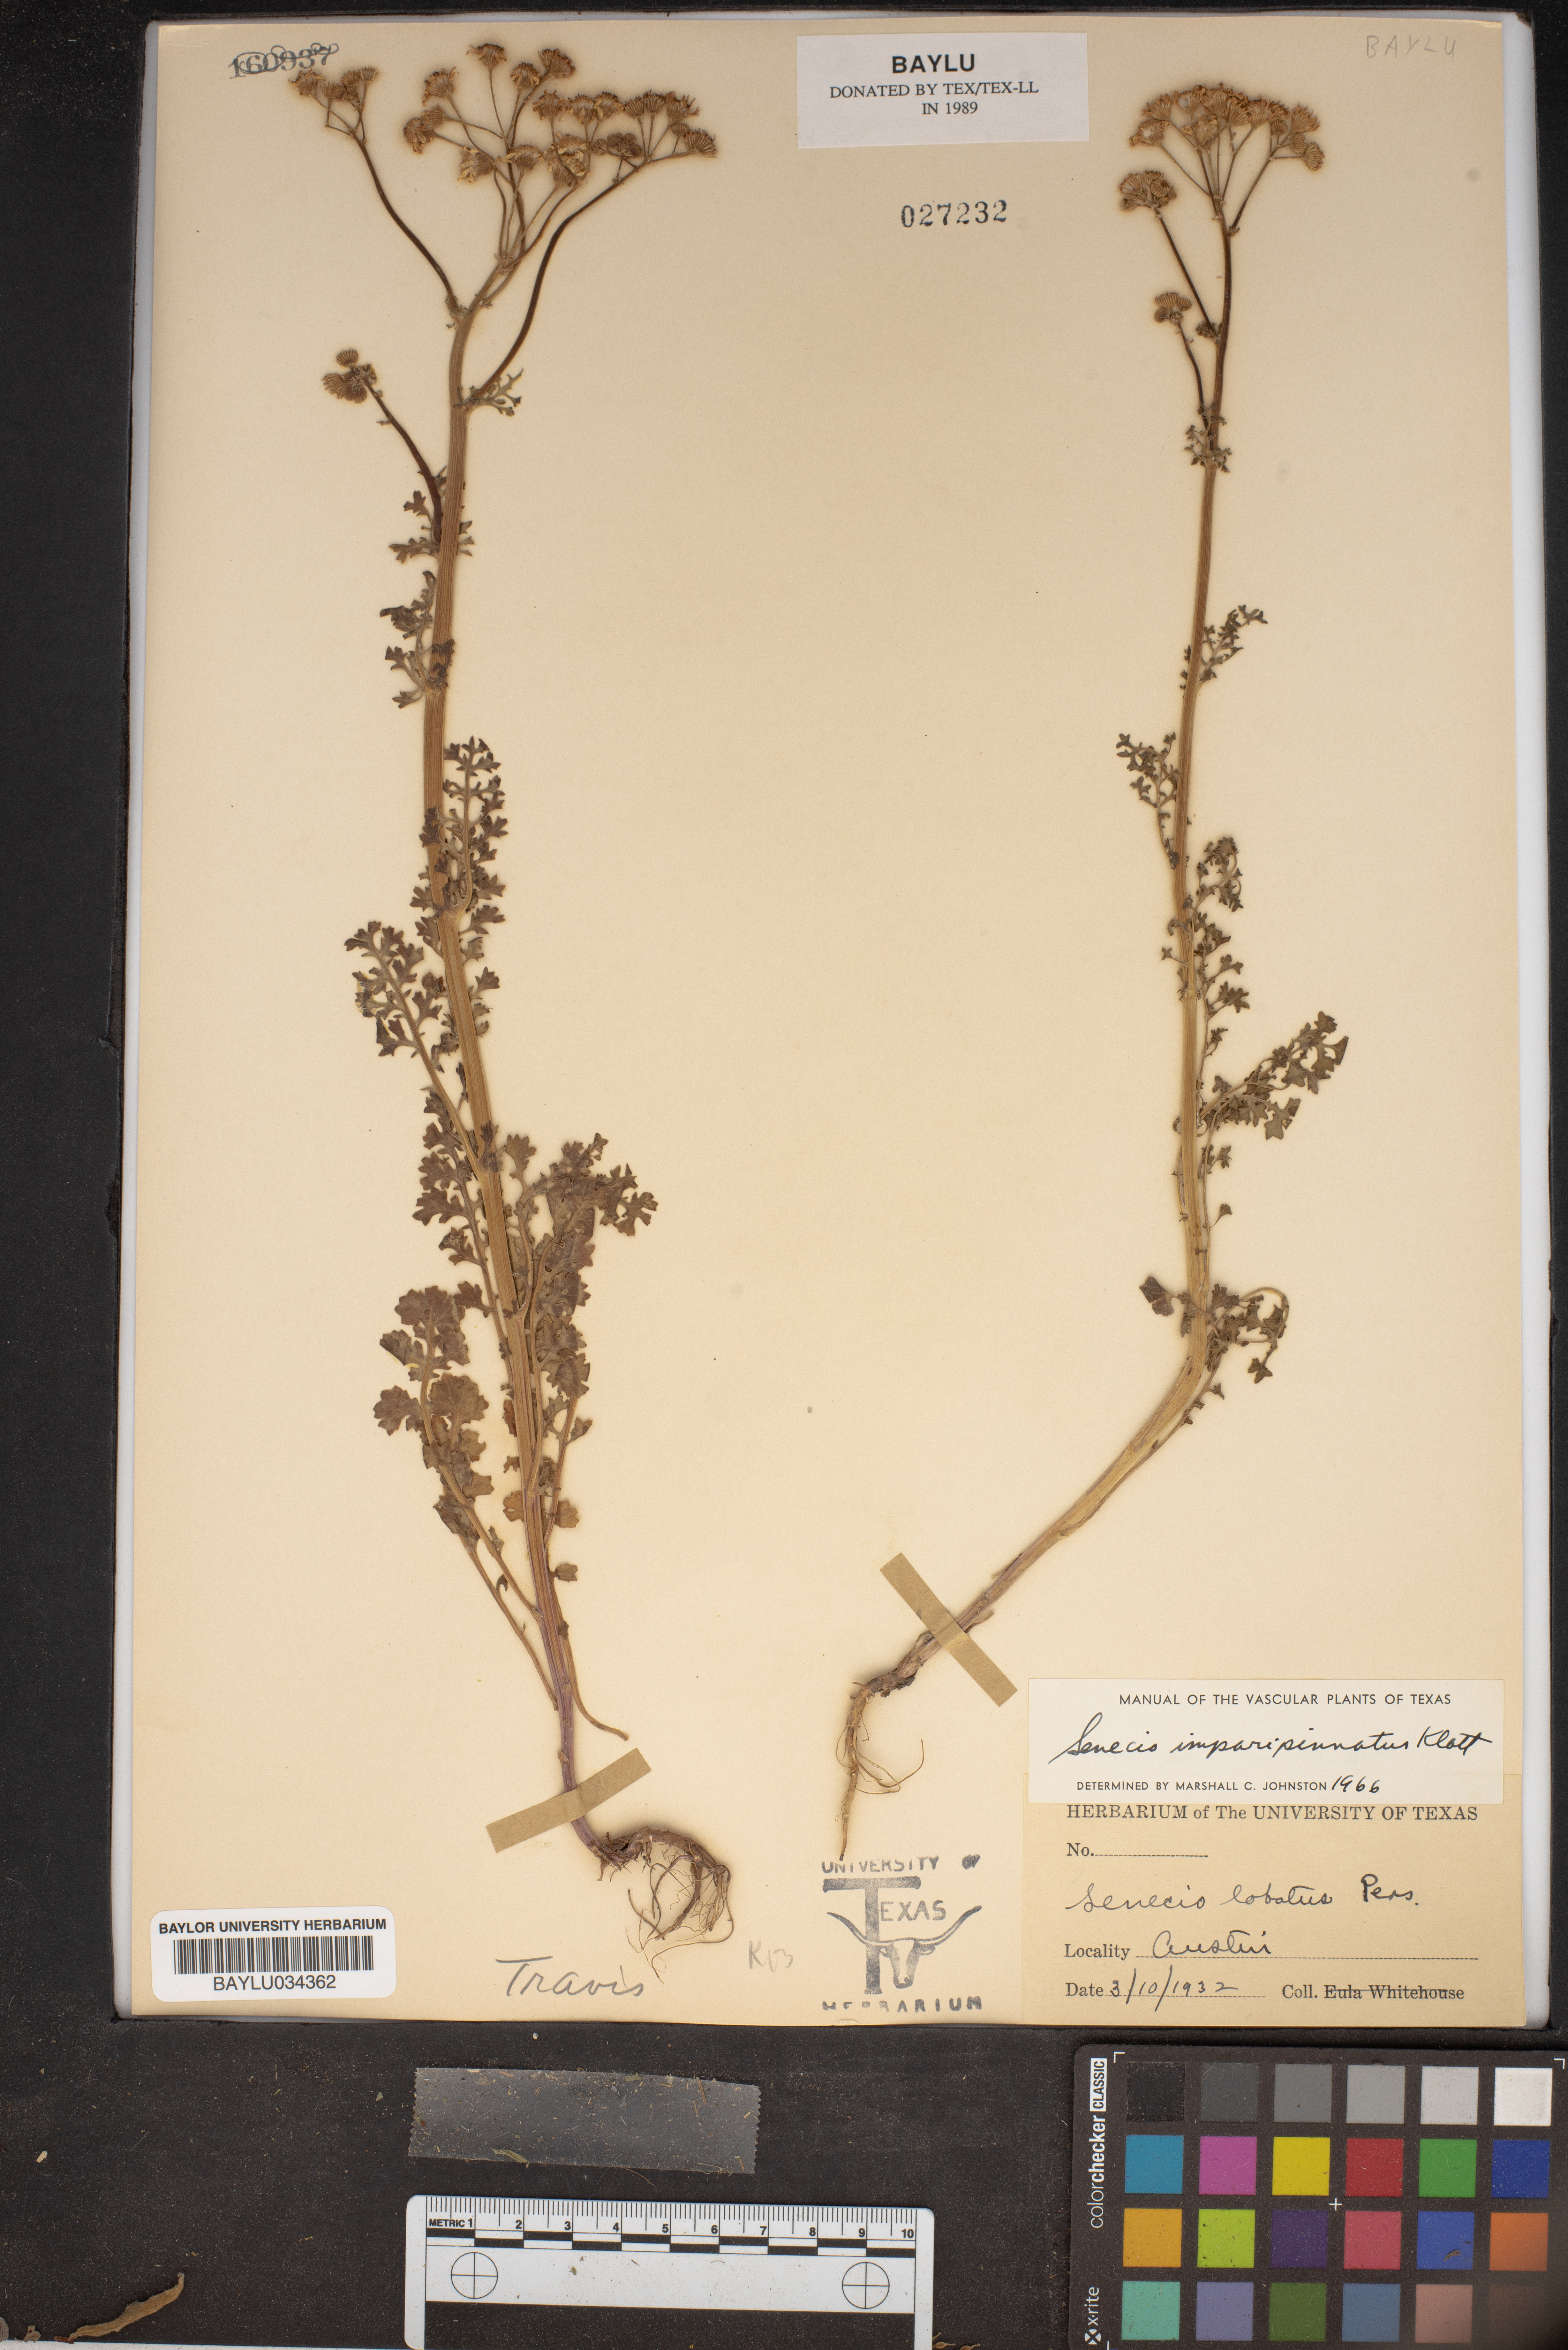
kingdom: Plantae
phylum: Tracheophyta
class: Magnoliopsida
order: Asterales
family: Asteraceae
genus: Packera
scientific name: Packera glabella
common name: Butterweed
